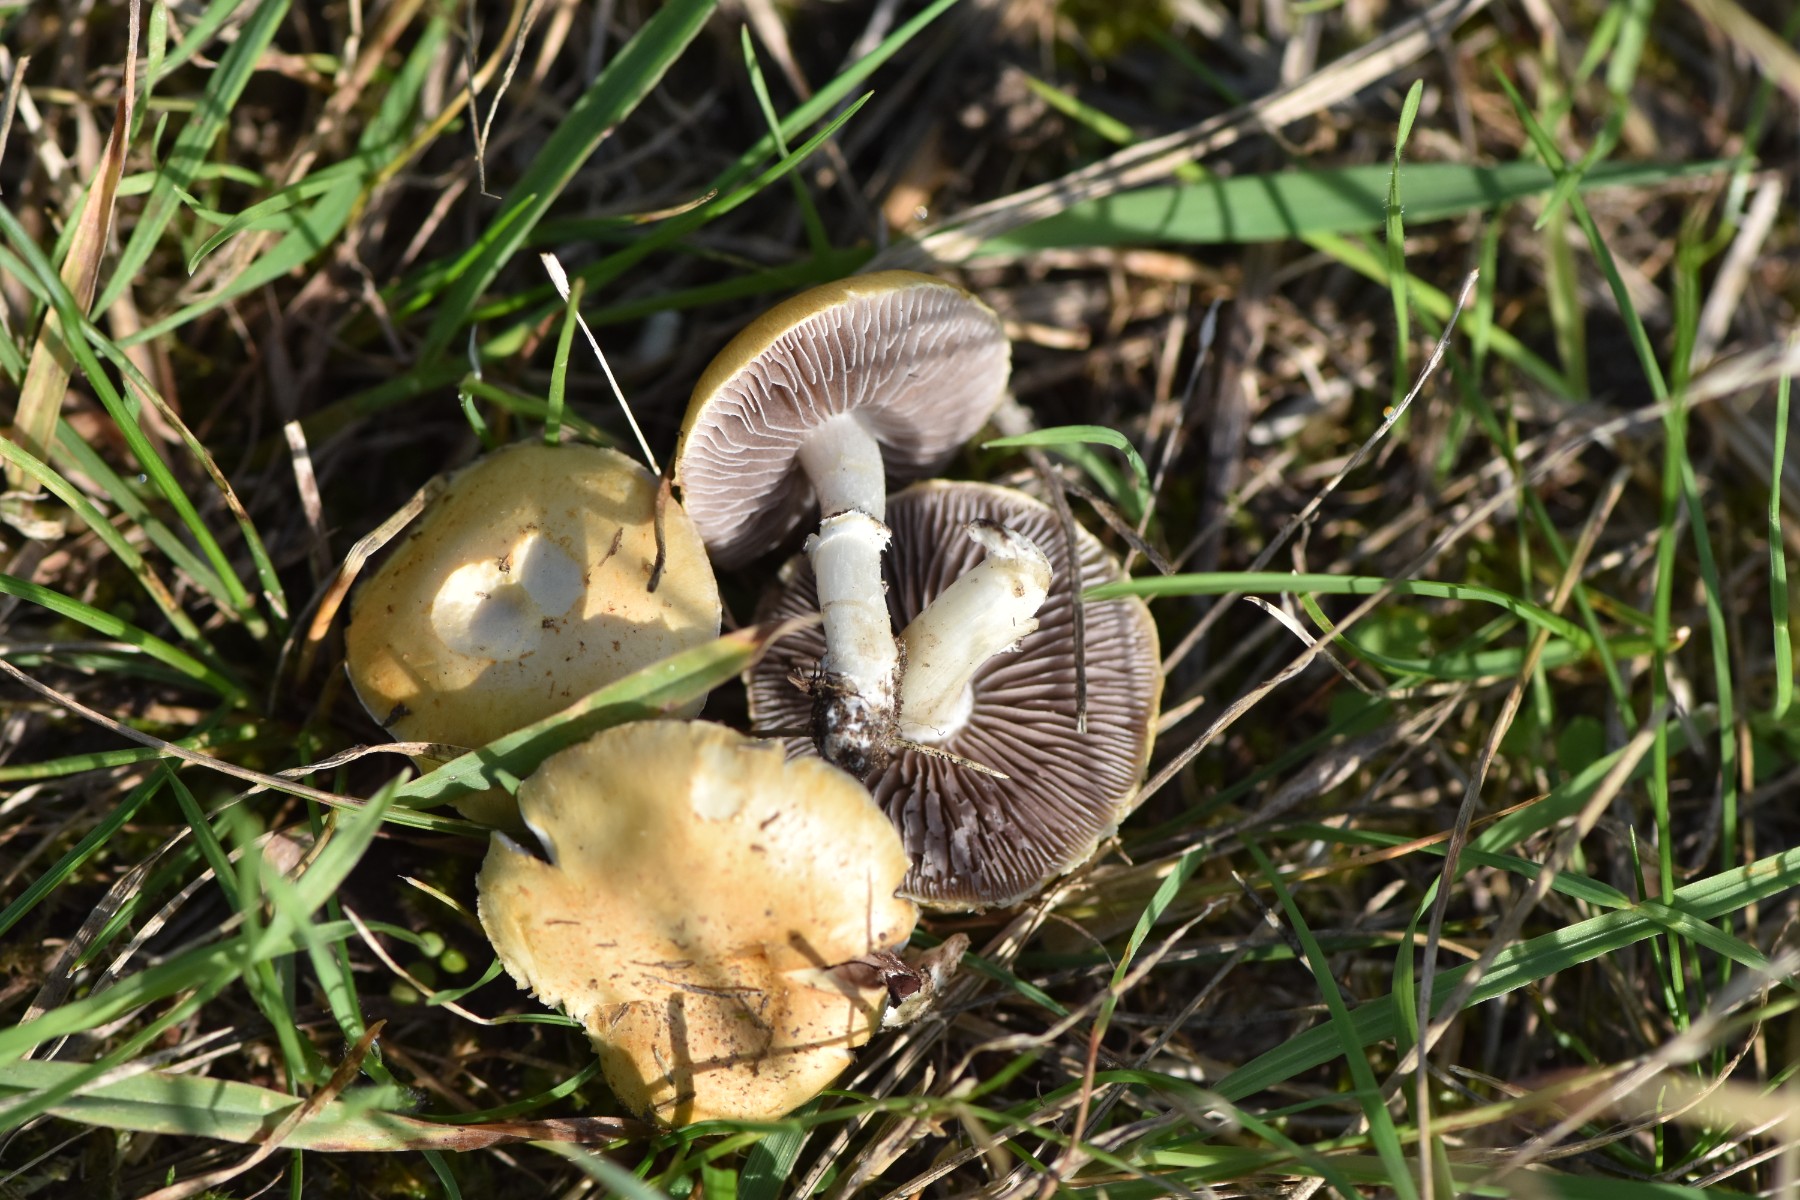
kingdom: Fungi
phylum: Basidiomycota
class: Agaricomycetes
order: Agaricales
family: Hymenogastraceae
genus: Psilocybe
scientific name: Psilocybe coronilla
